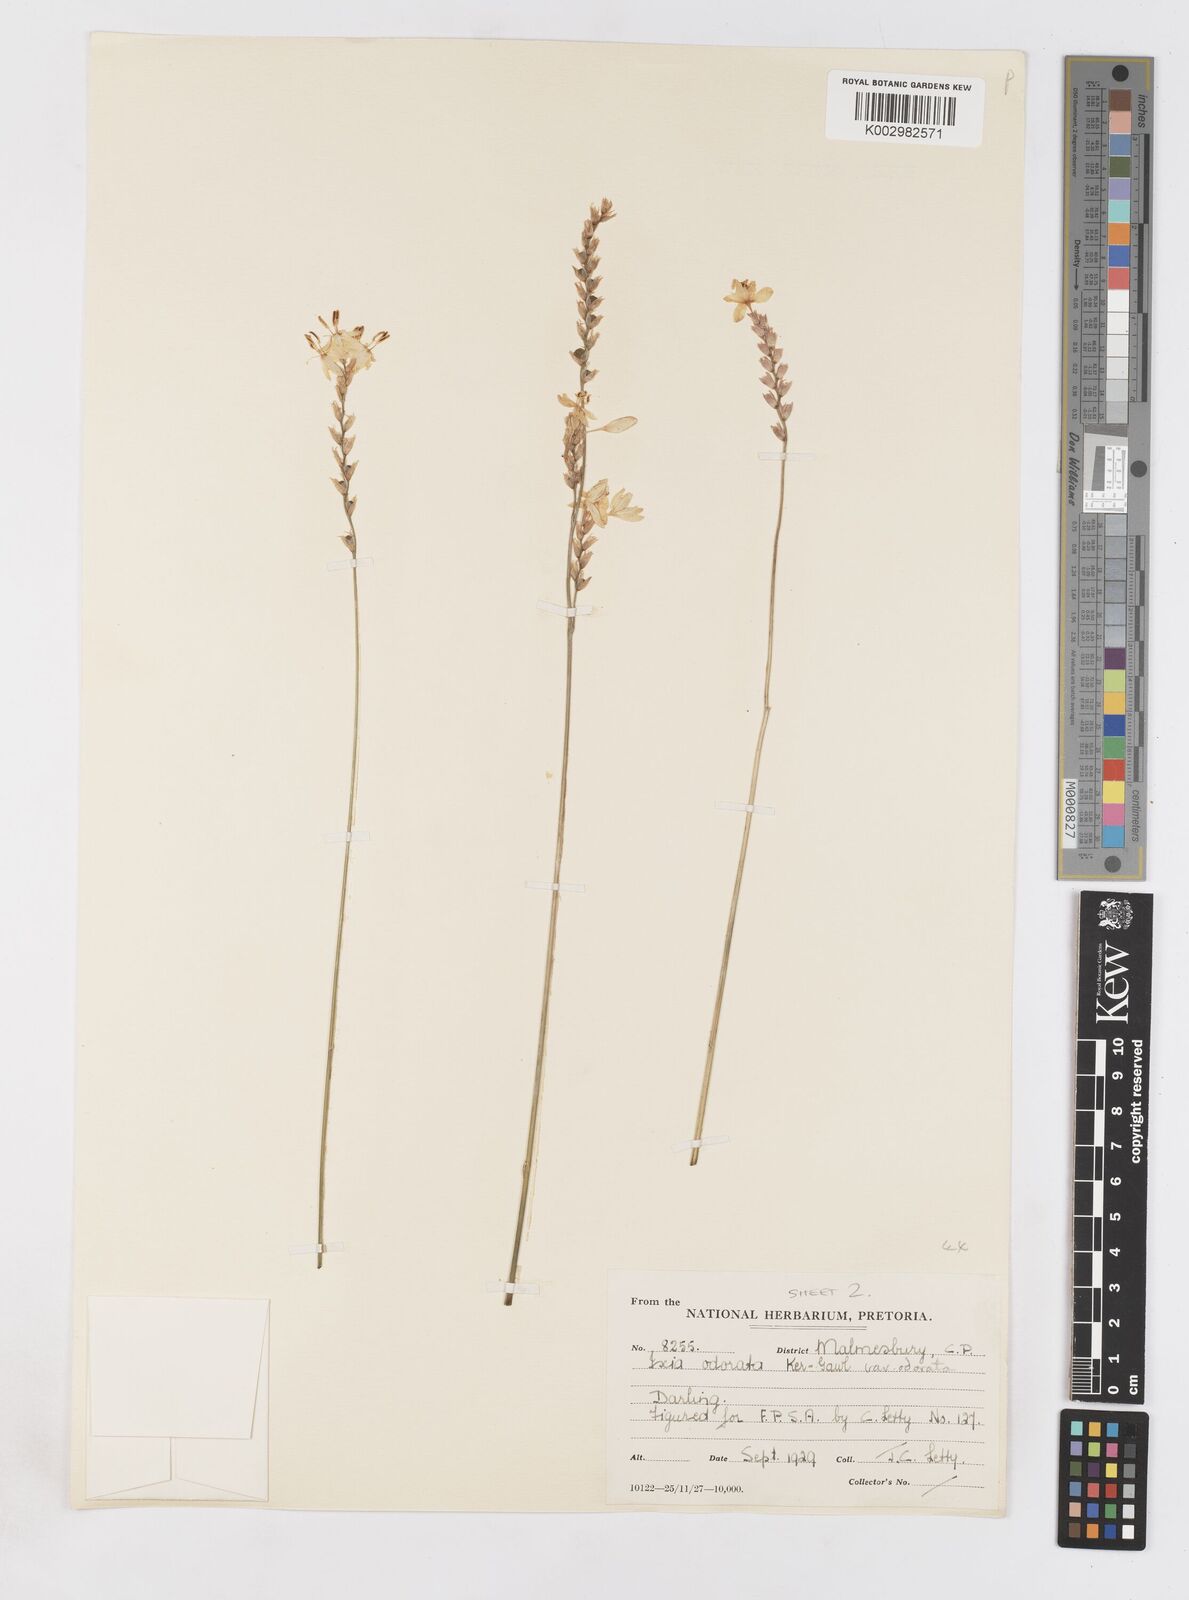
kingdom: Plantae
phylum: Tracheophyta
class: Liliopsida
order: Asparagales
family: Iridaceae
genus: Ixia
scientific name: Ixia odorata
